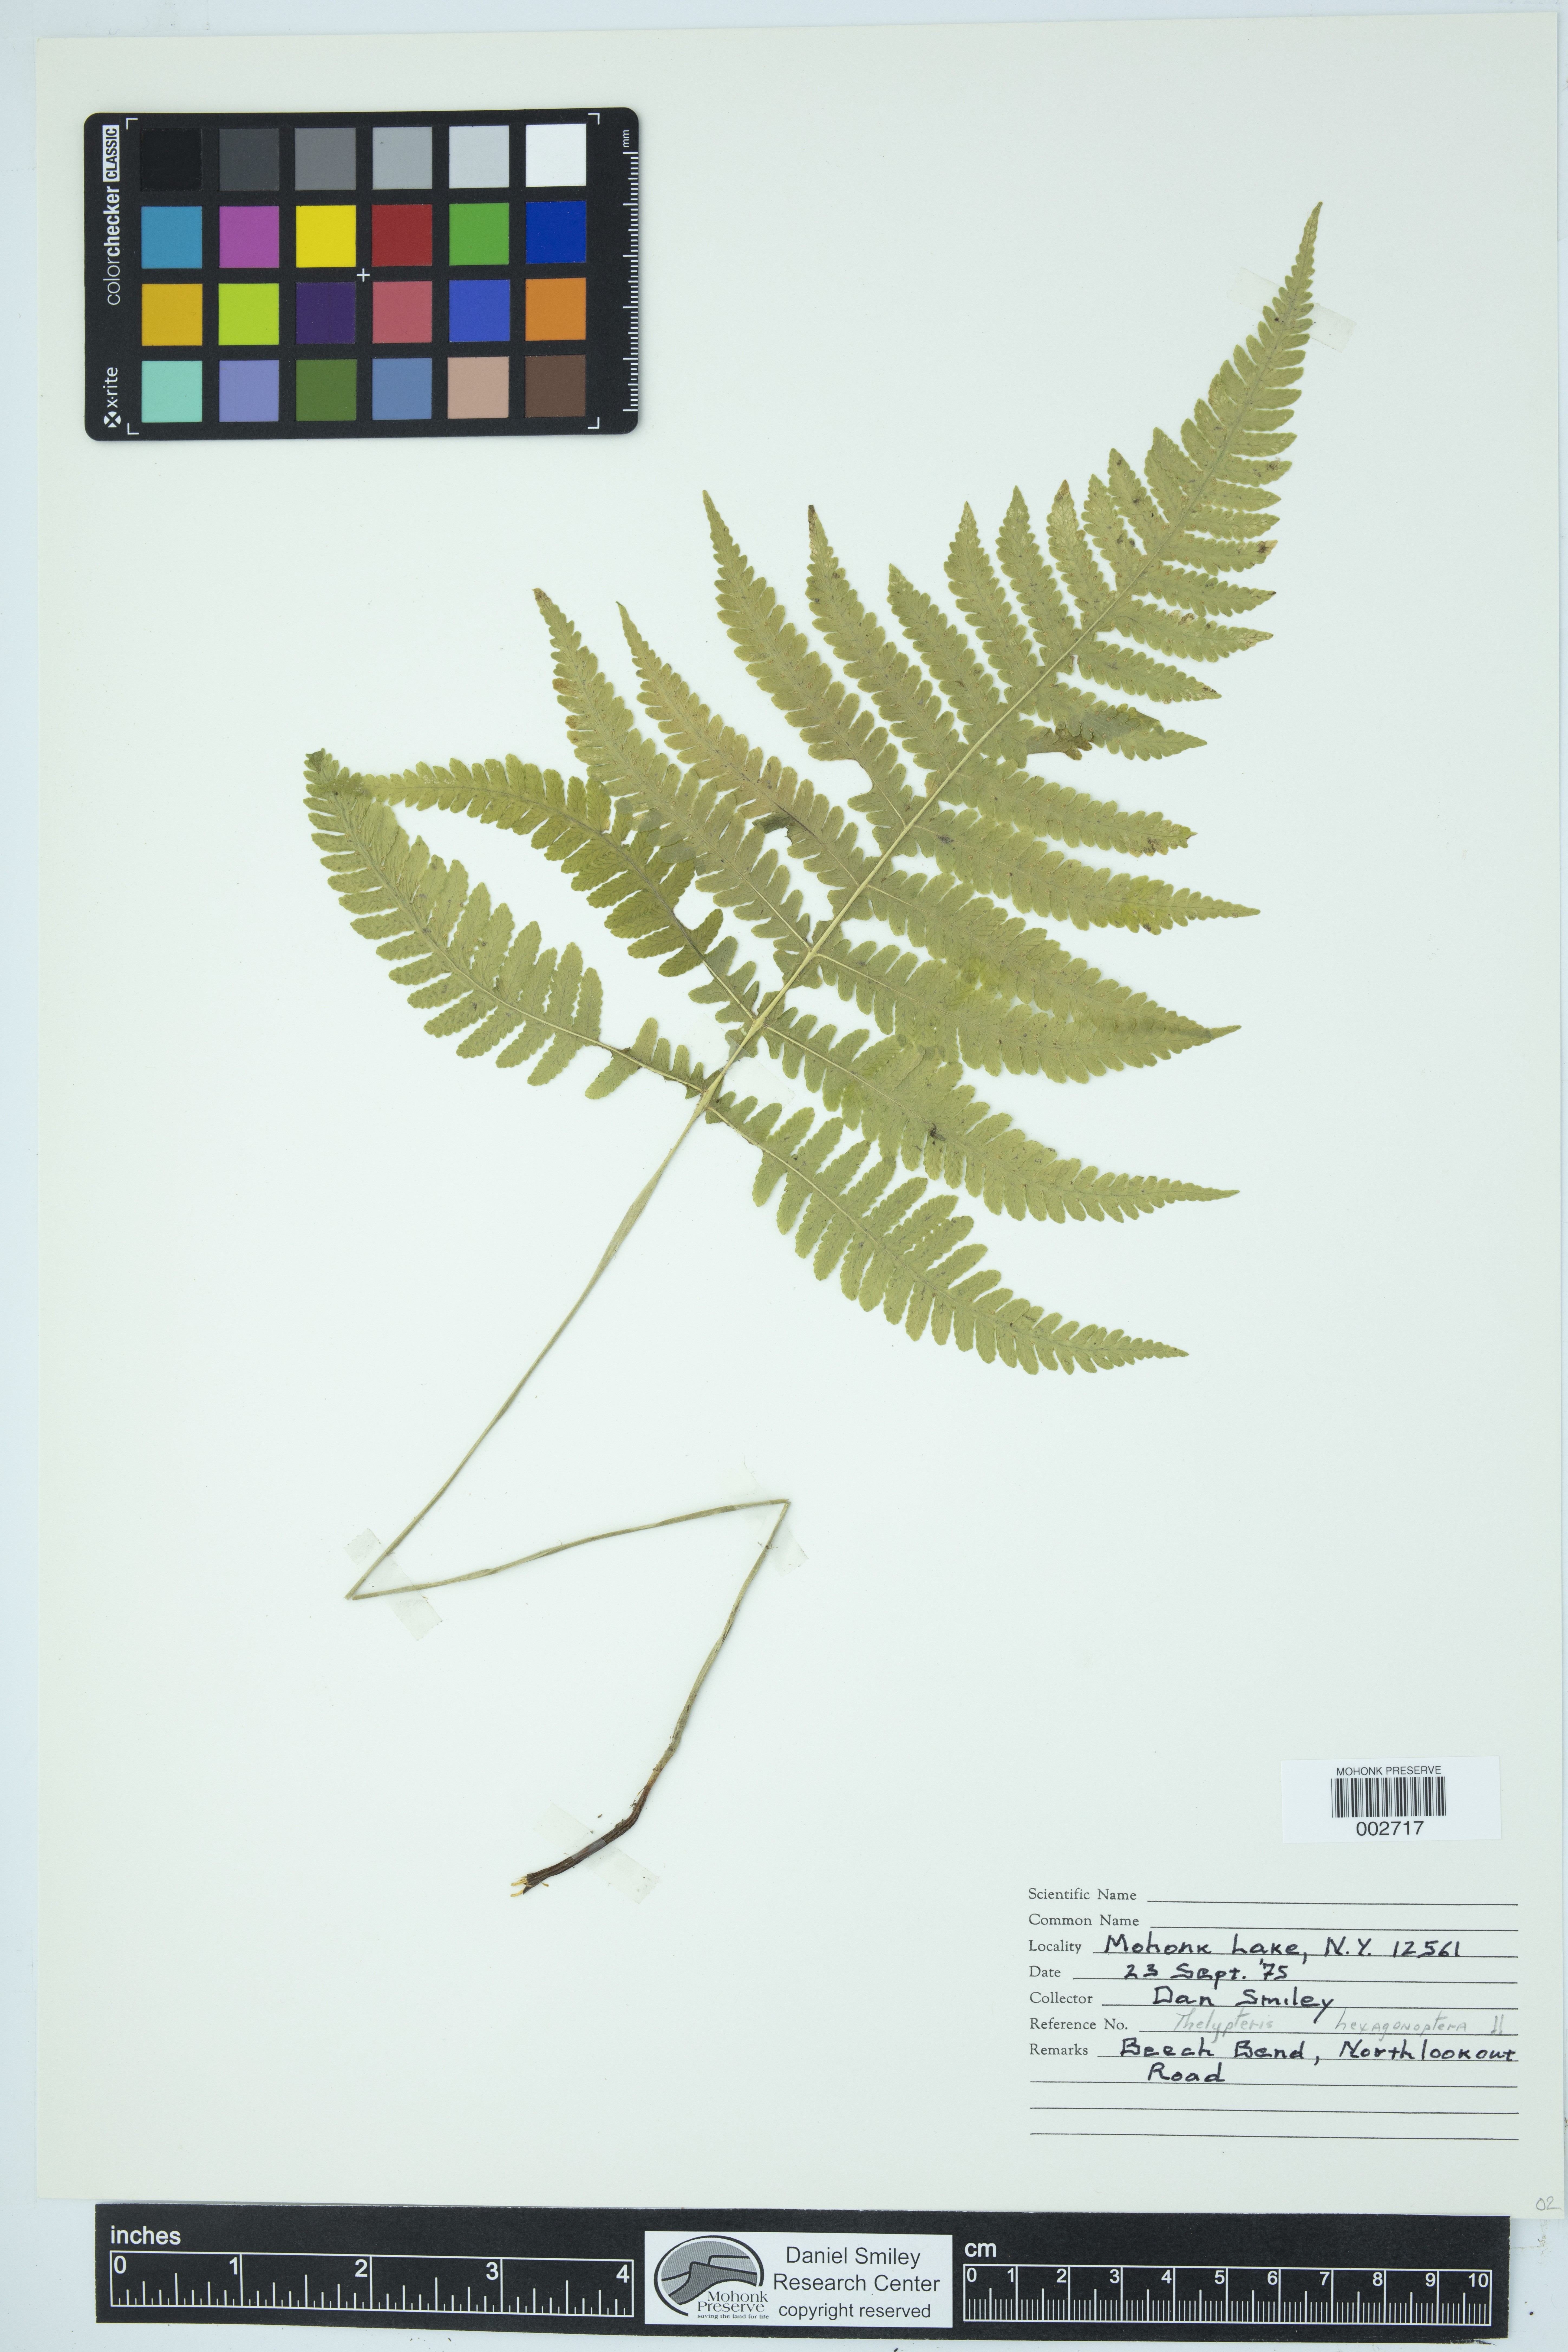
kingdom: Plantae
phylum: Tracheophyta
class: Polypodiopsida
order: Polypodiales
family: Thelypteridaceae
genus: Phegopteris
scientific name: Phegopteris hexagonoptera
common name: Broad beech fern
